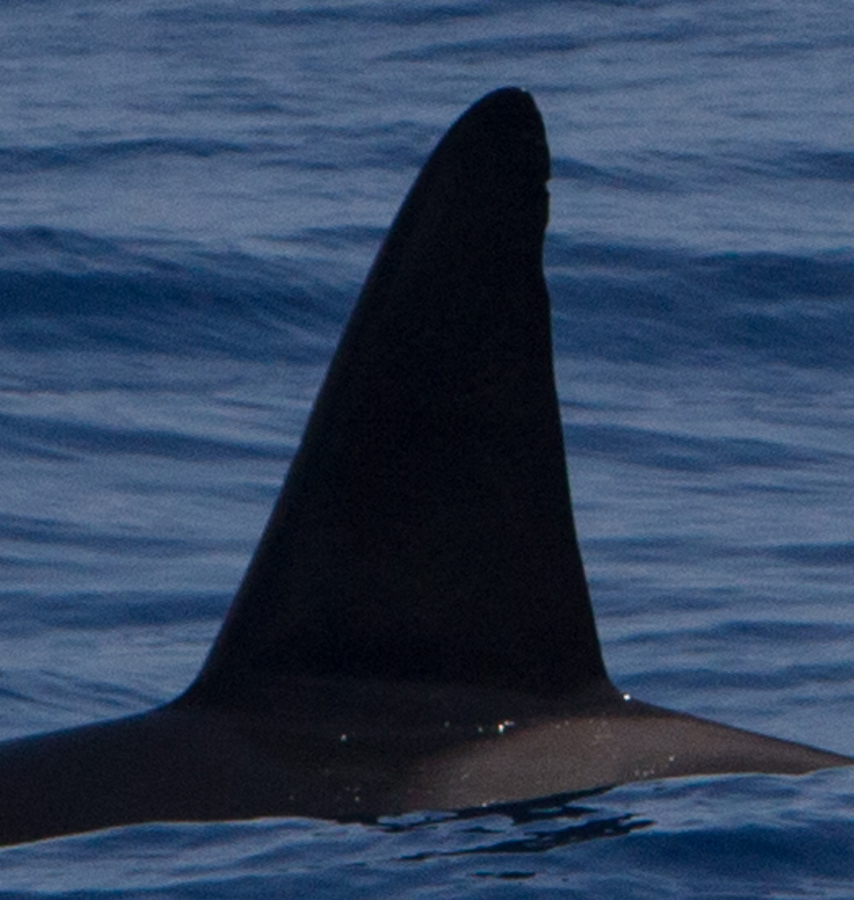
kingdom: Animalia
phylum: Chordata
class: Mammalia
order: Cetacea
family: Delphinidae
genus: Orcinus
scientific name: Orcinus orca
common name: Killer Whale
